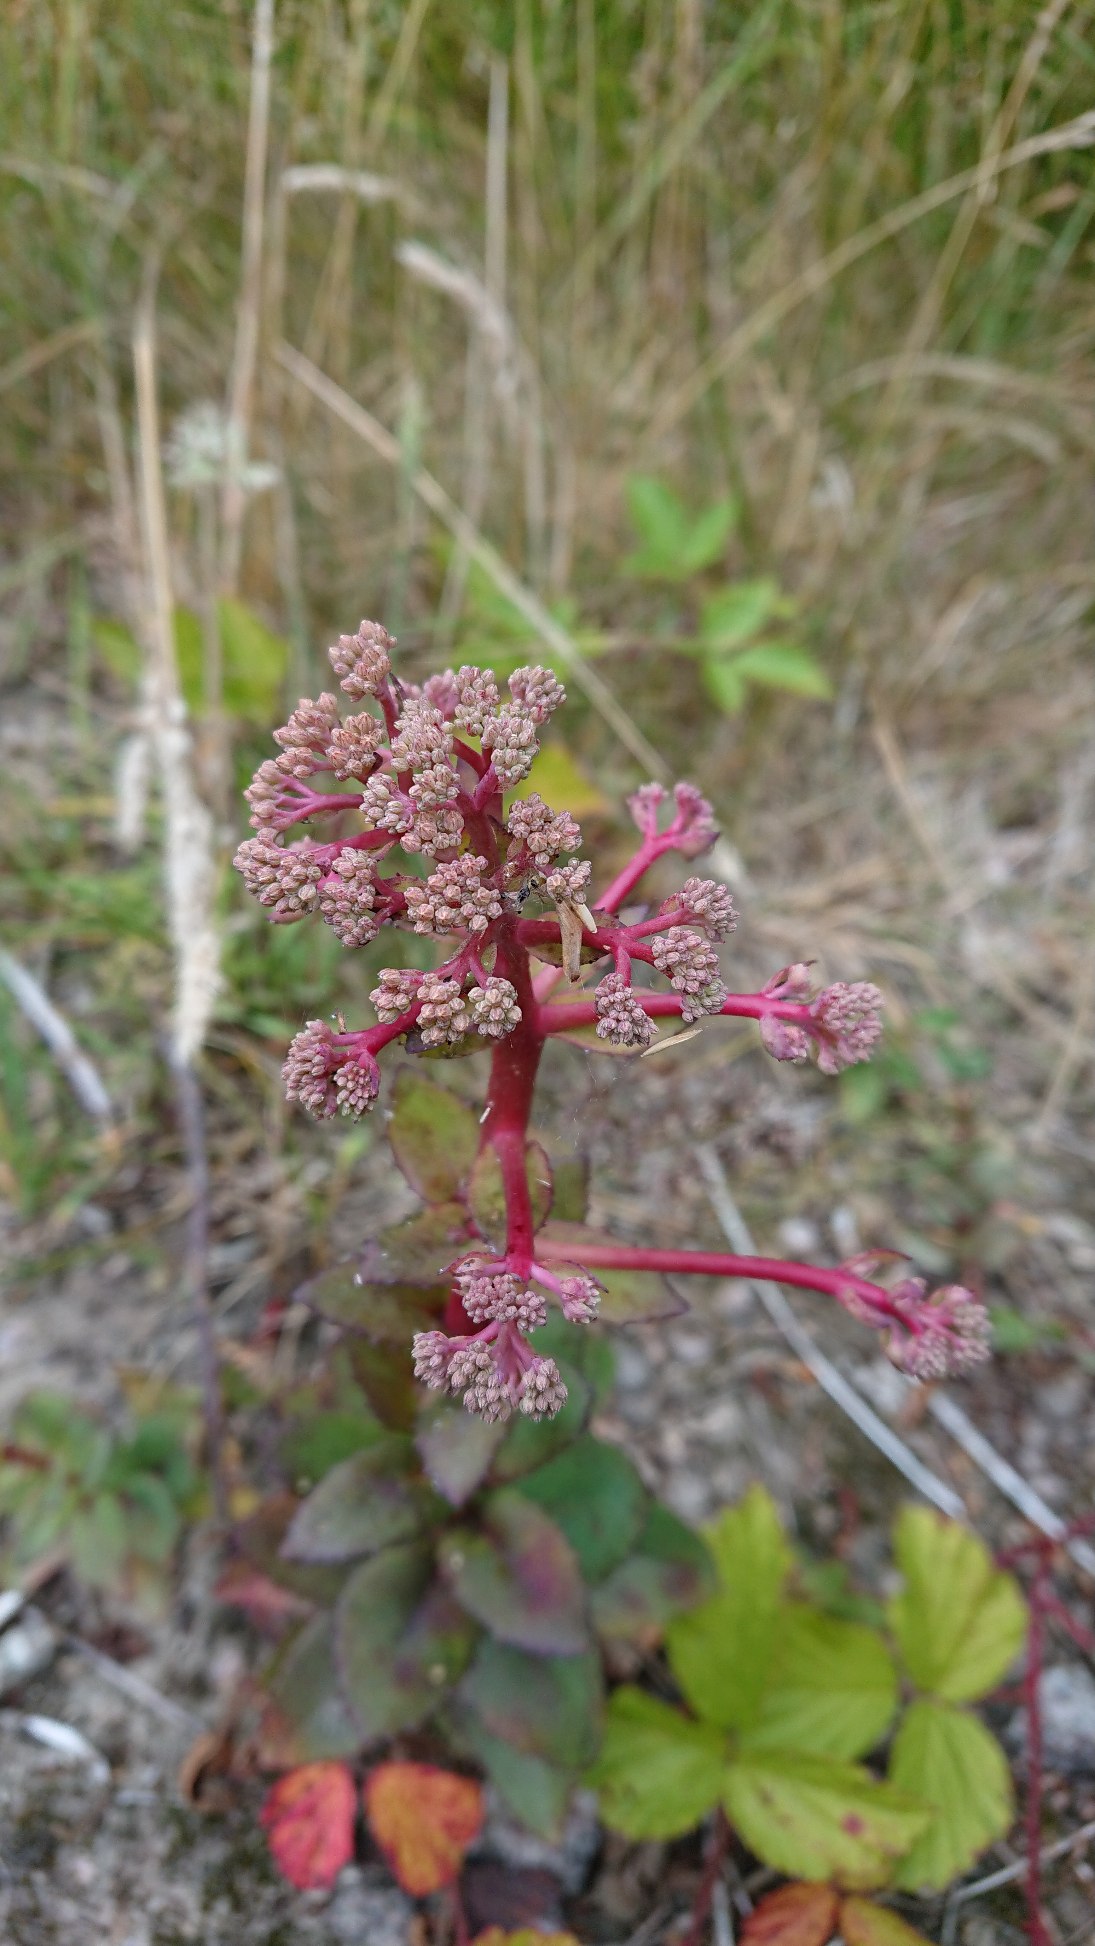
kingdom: Plantae
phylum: Tracheophyta
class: Magnoliopsida
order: Saxifragales
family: Crassulaceae
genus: Hylotelephium
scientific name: Hylotelephium maximum
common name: Almindelig sankthansurt
